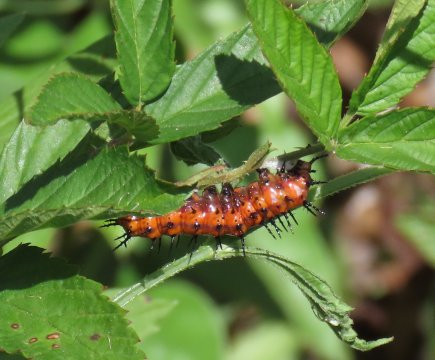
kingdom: Animalia
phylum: Arthropoda
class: Insecta
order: Lepidoptera
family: Nymphalidae
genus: Dione
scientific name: Dione vanillae
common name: Gulf Fritillary
